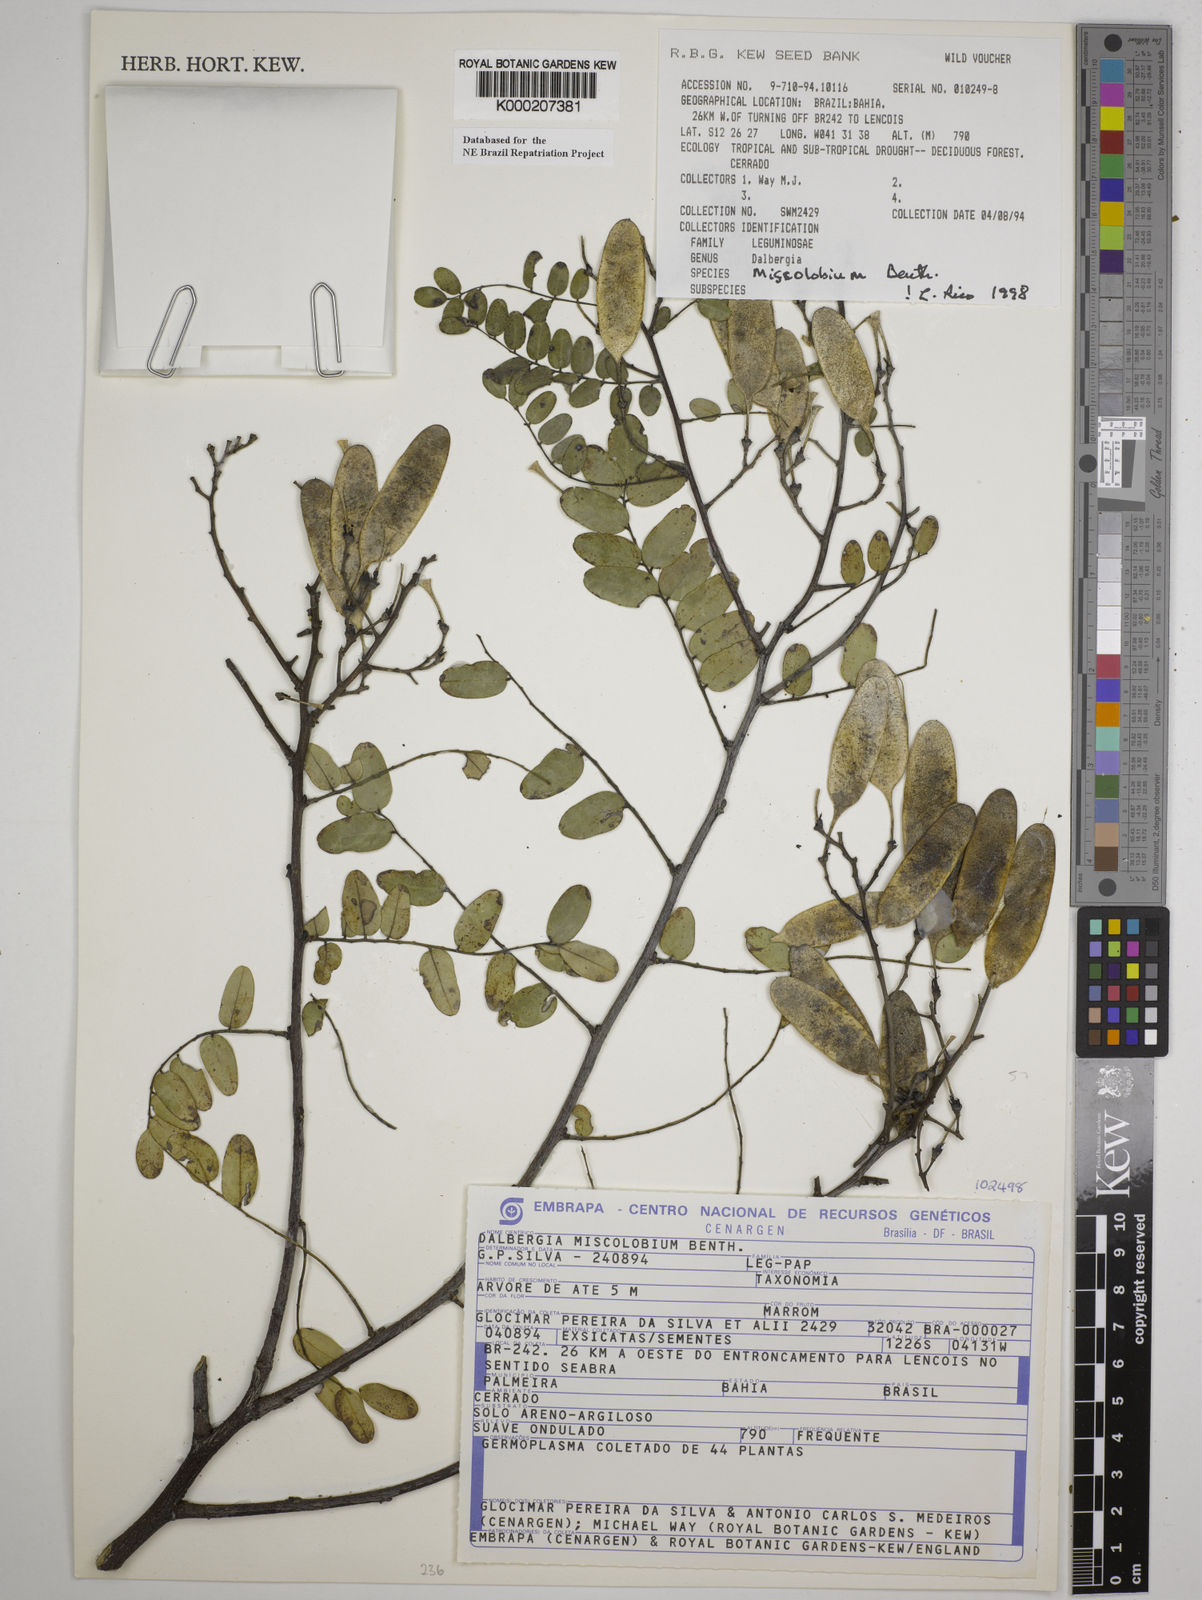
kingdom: Plantae
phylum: Tracheophyta
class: Magnoliopsida
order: Fabales
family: Fabaceae
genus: Dalbergia
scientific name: Dalbergia miscolobium
